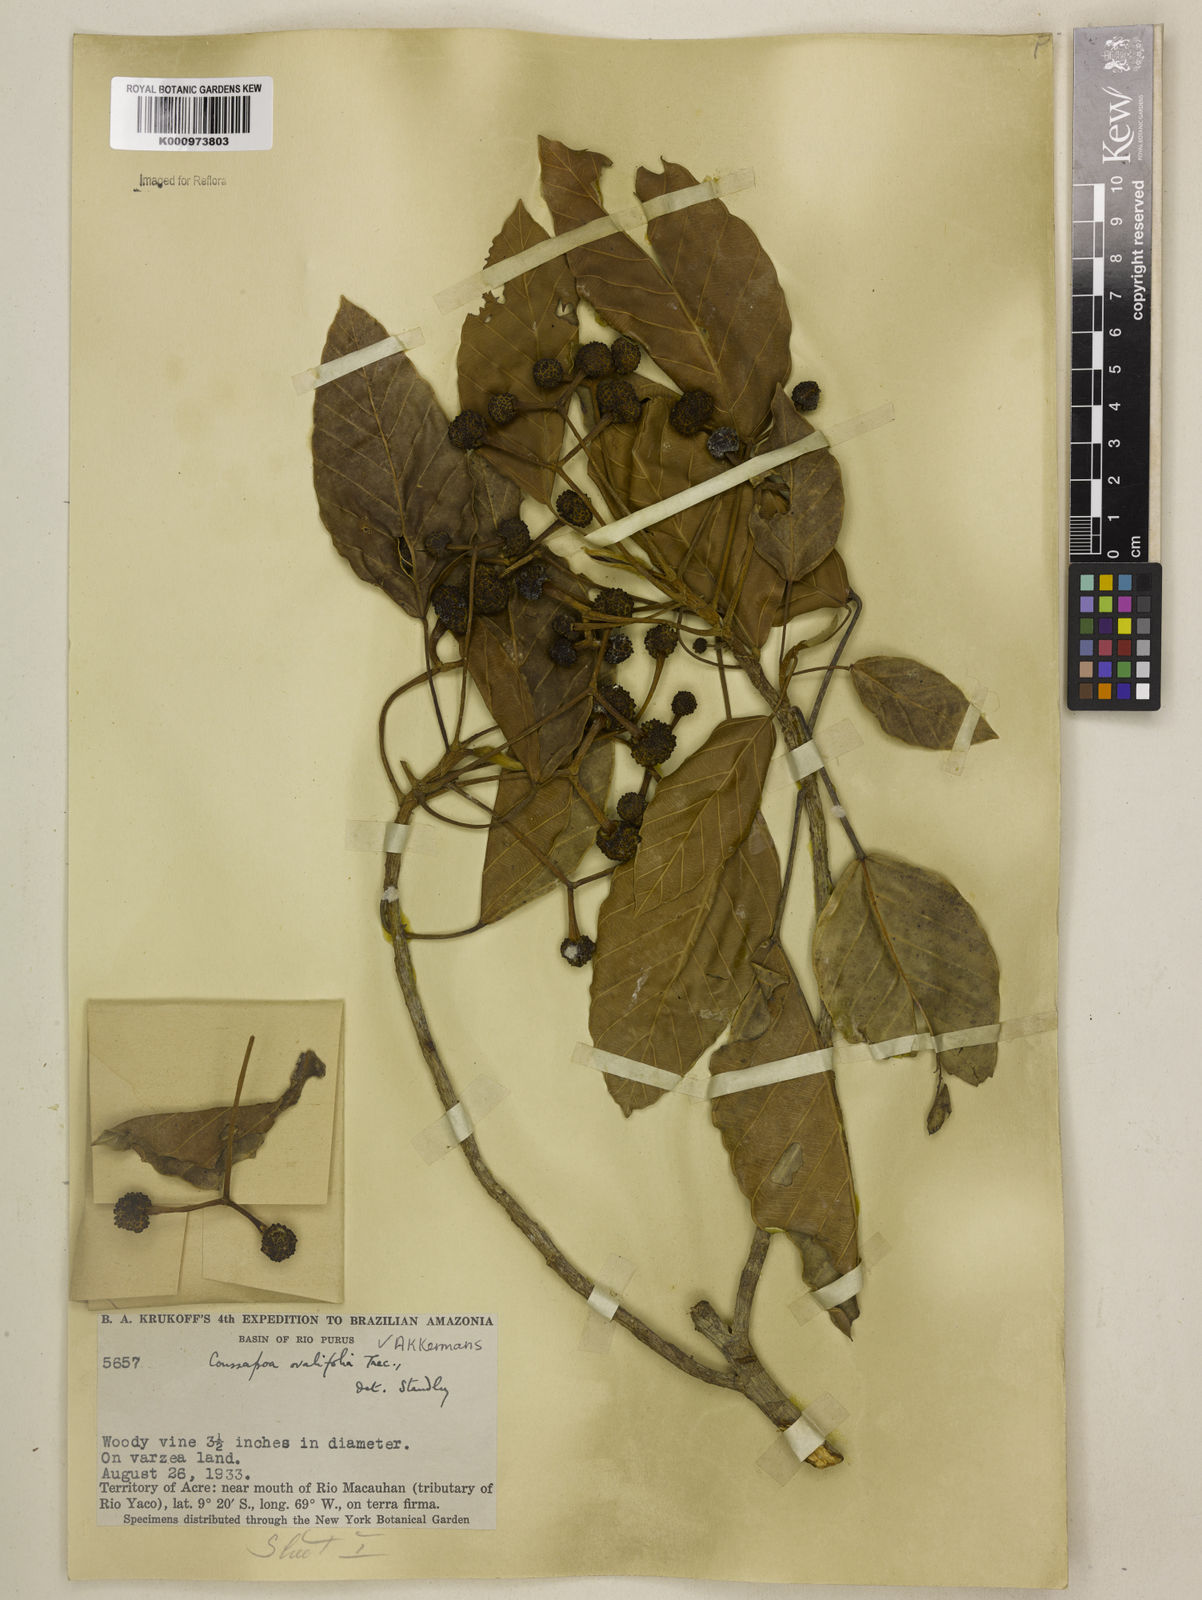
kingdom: Plantae
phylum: Tracheophyta
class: Magnoliopsida
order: Rosales
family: Urticaceae
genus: Coussapoa
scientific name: Coussapoa
